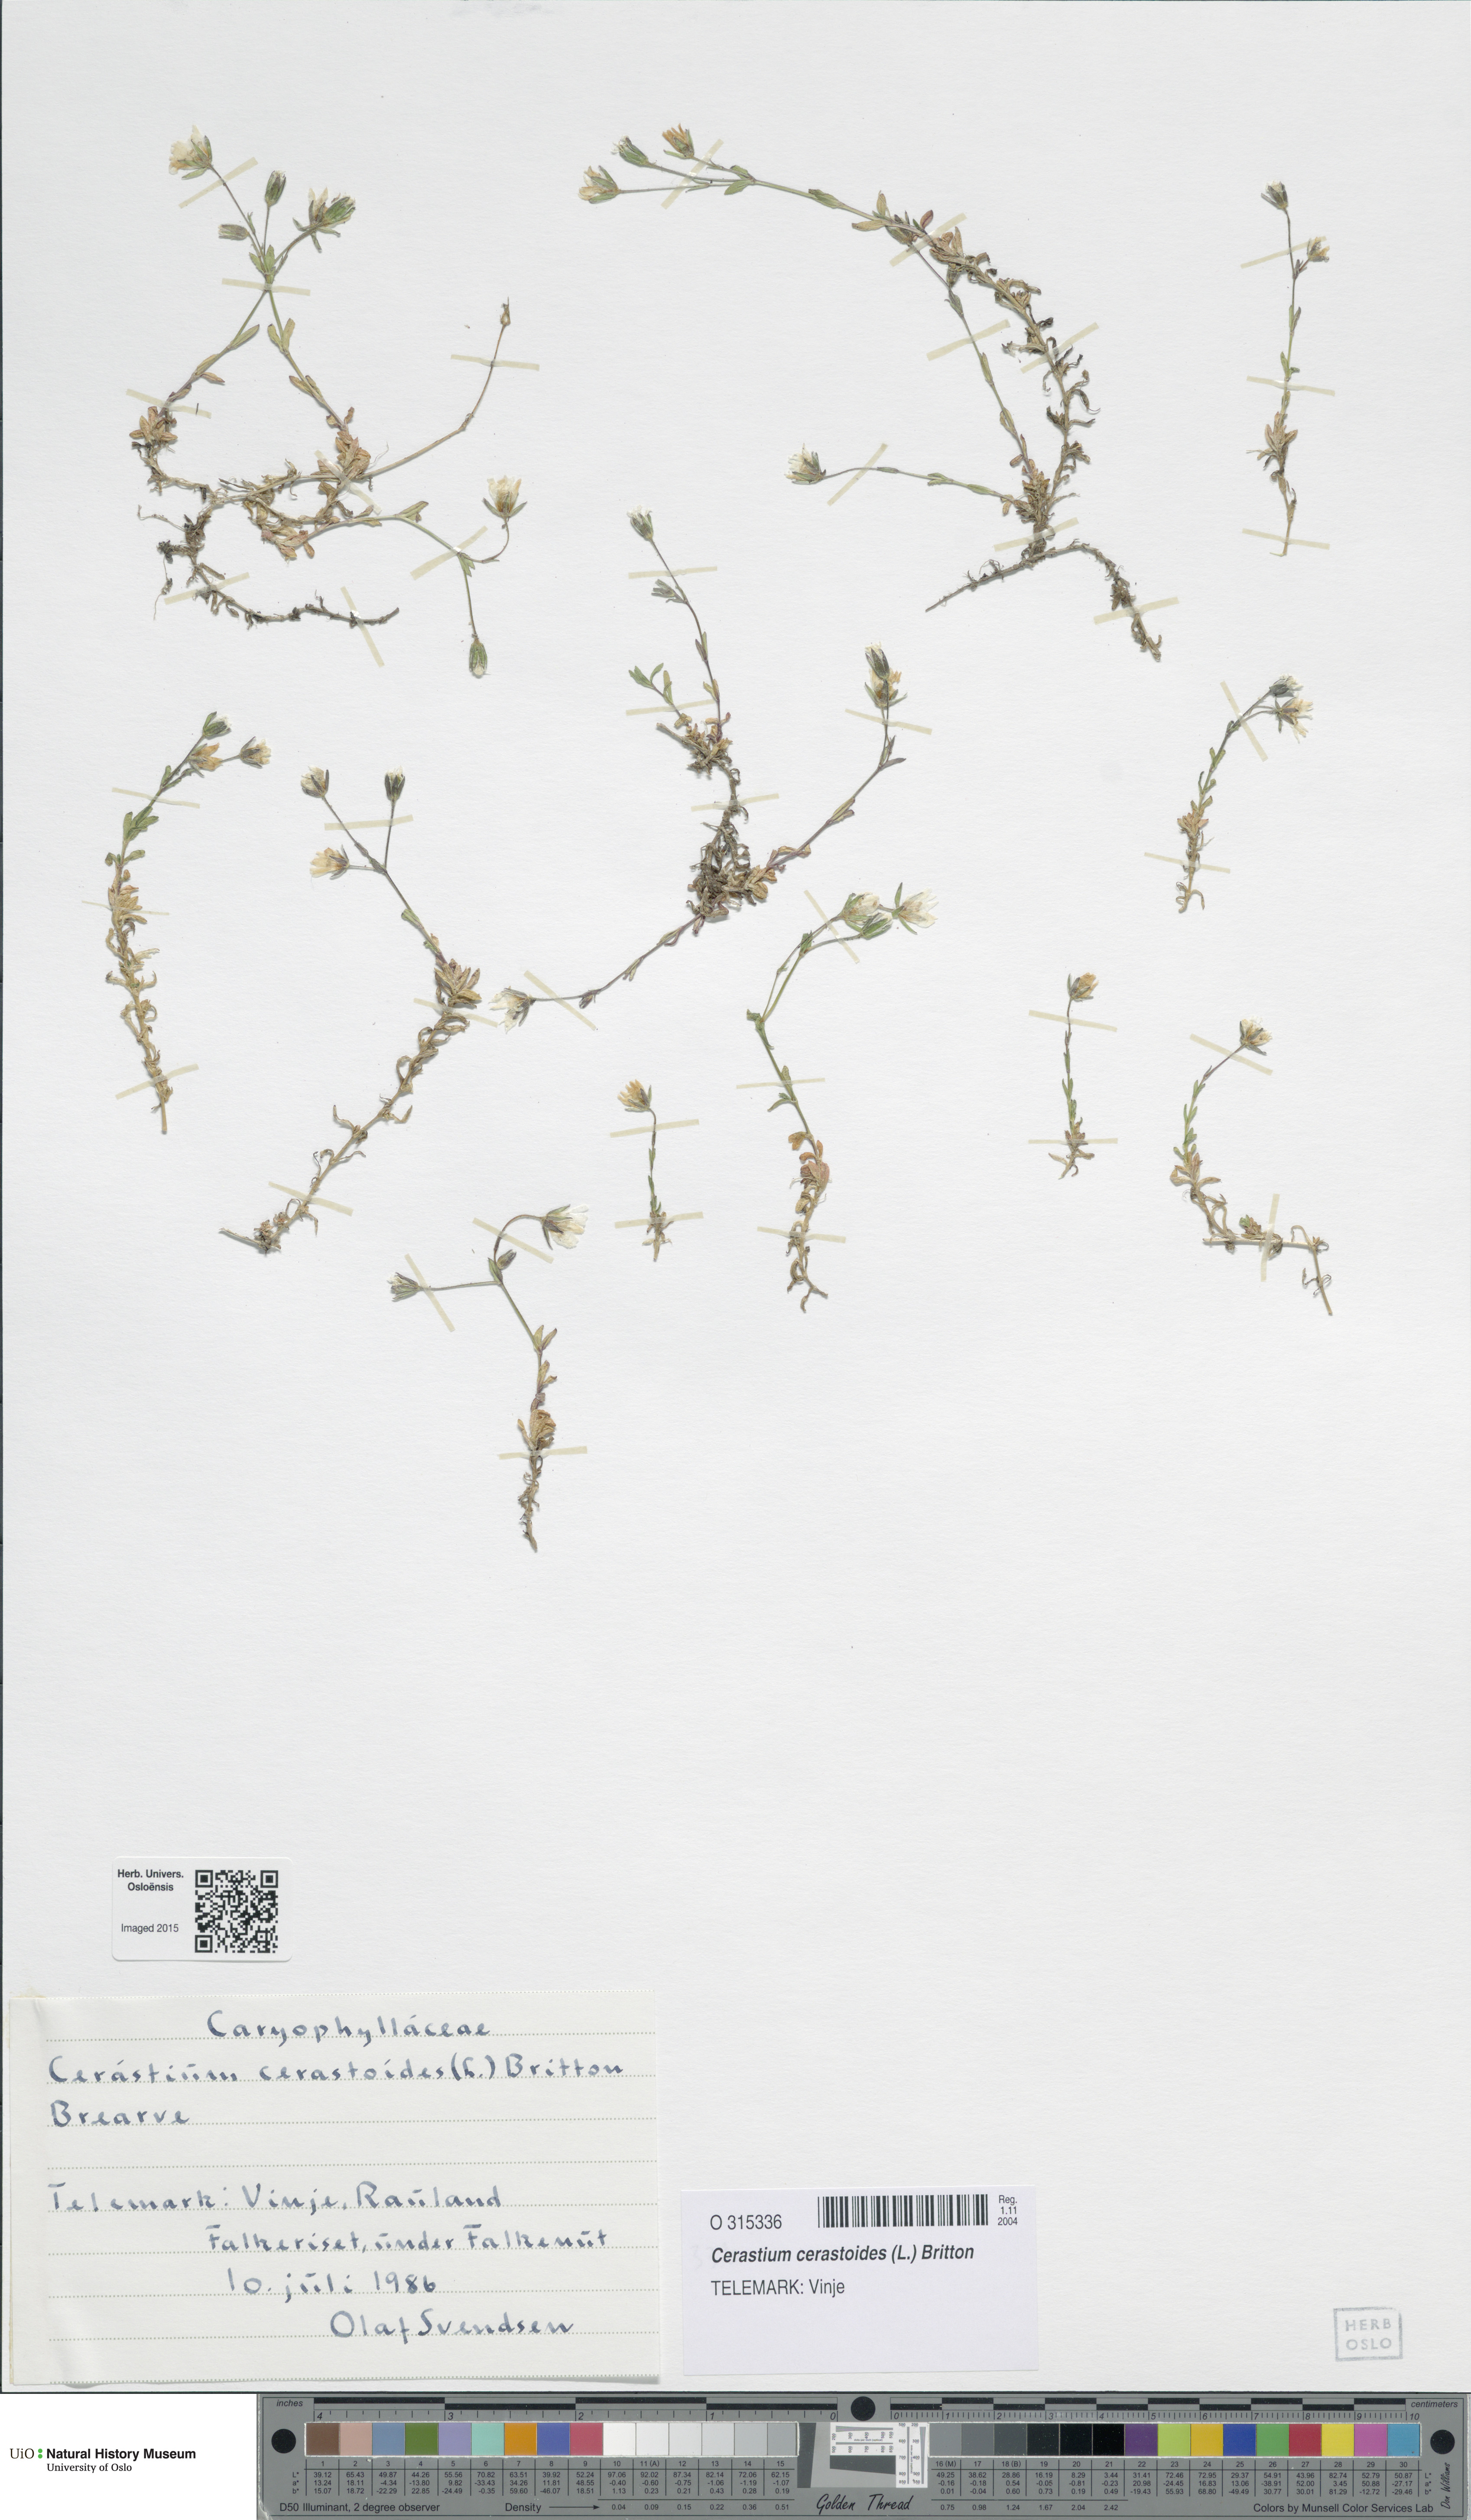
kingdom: Plantae
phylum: Tracheophyta
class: Magnoliopsida
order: Caryophyllales
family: Caryophyllaceae
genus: Dichodon
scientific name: Dichodon cerastoides
